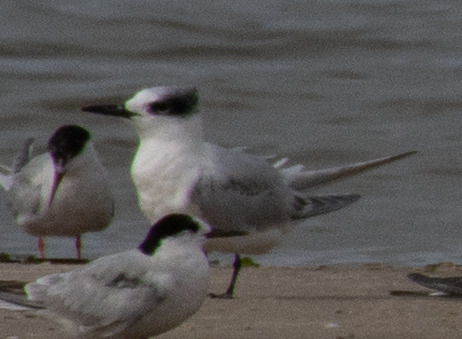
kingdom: Animalia
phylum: Chordata
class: Aves
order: Charadriiformes
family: Laridae
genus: Thalasseus
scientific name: Thalasseus sandvicensis
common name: Splitterne
